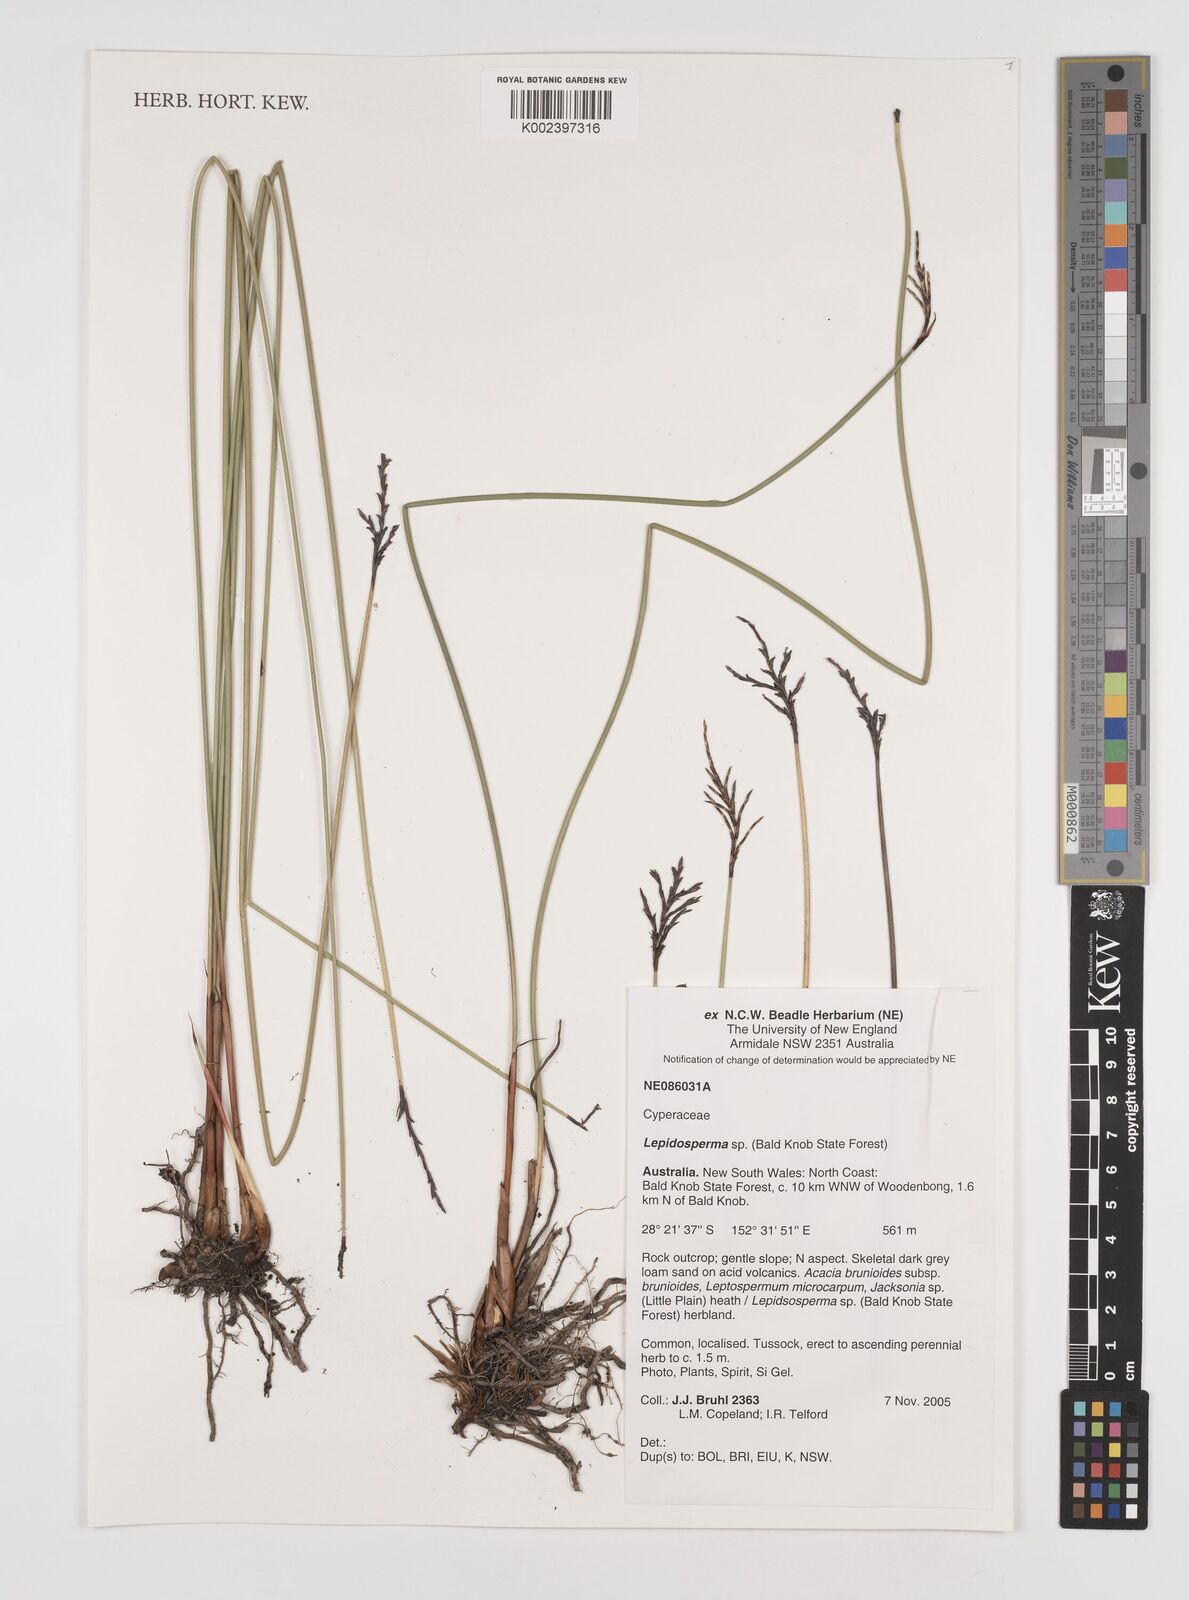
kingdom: Plantae
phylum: Tracheophyta
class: Liliopsida
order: Poales
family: Cyperaceae
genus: Lepidosperma
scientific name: Lepidosperma
